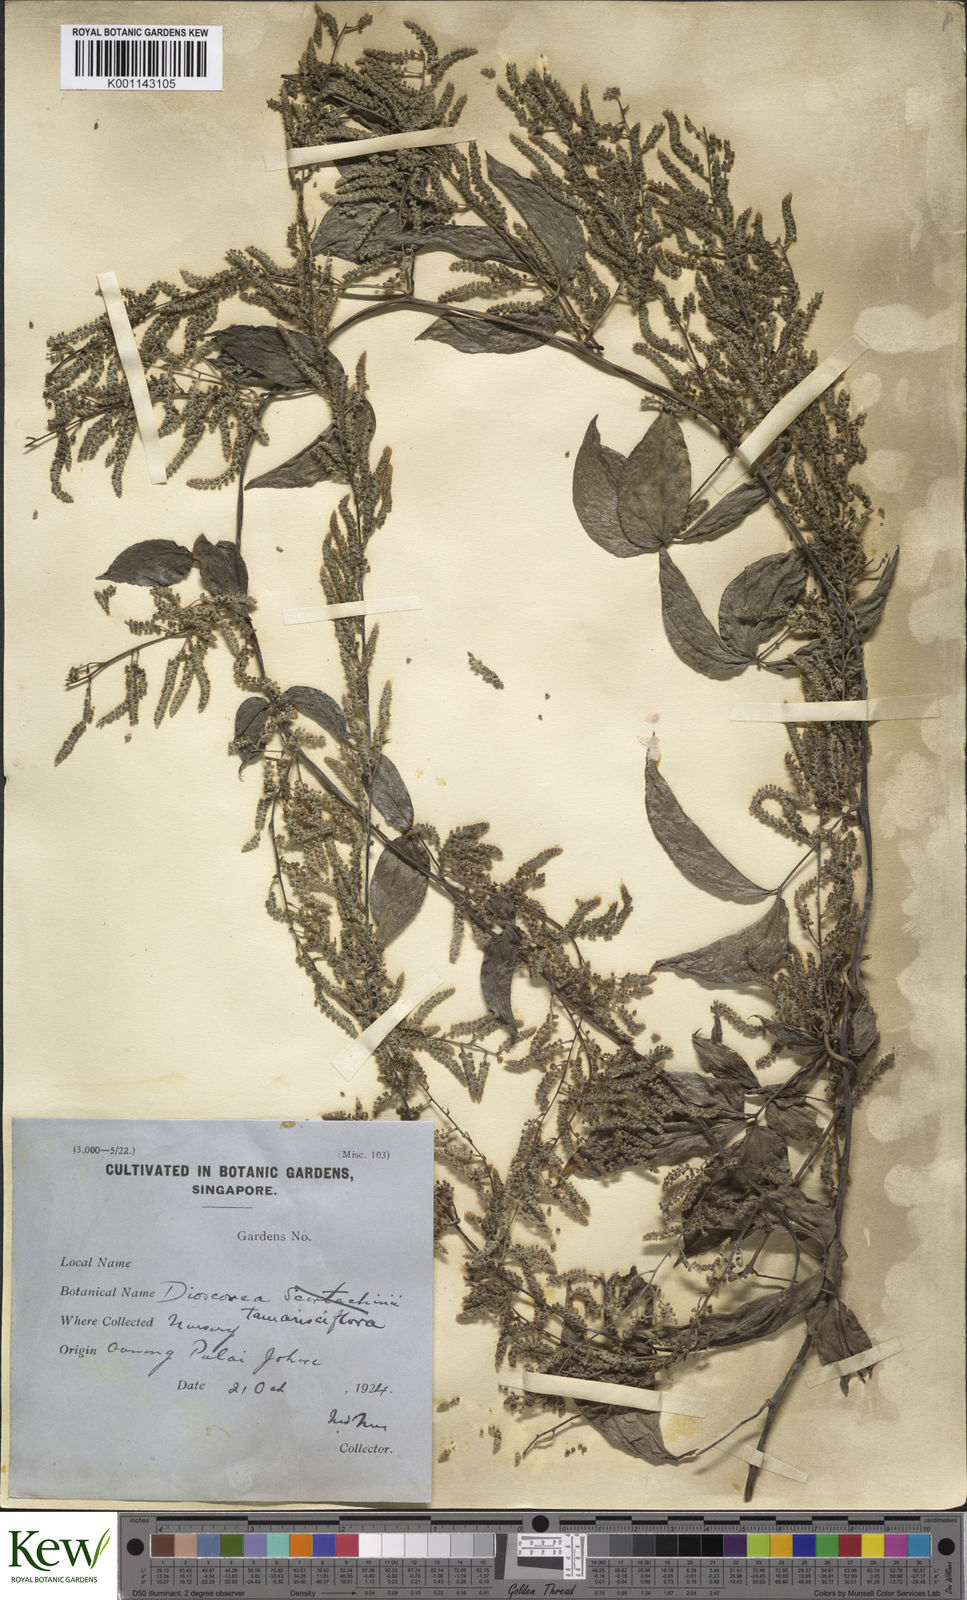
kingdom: Plantae
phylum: Tracheophyta
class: Liliopsida
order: Dioscoreales
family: Dioscoreaceae
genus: Dioscorea
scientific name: Dioscorea tamarisciflora
